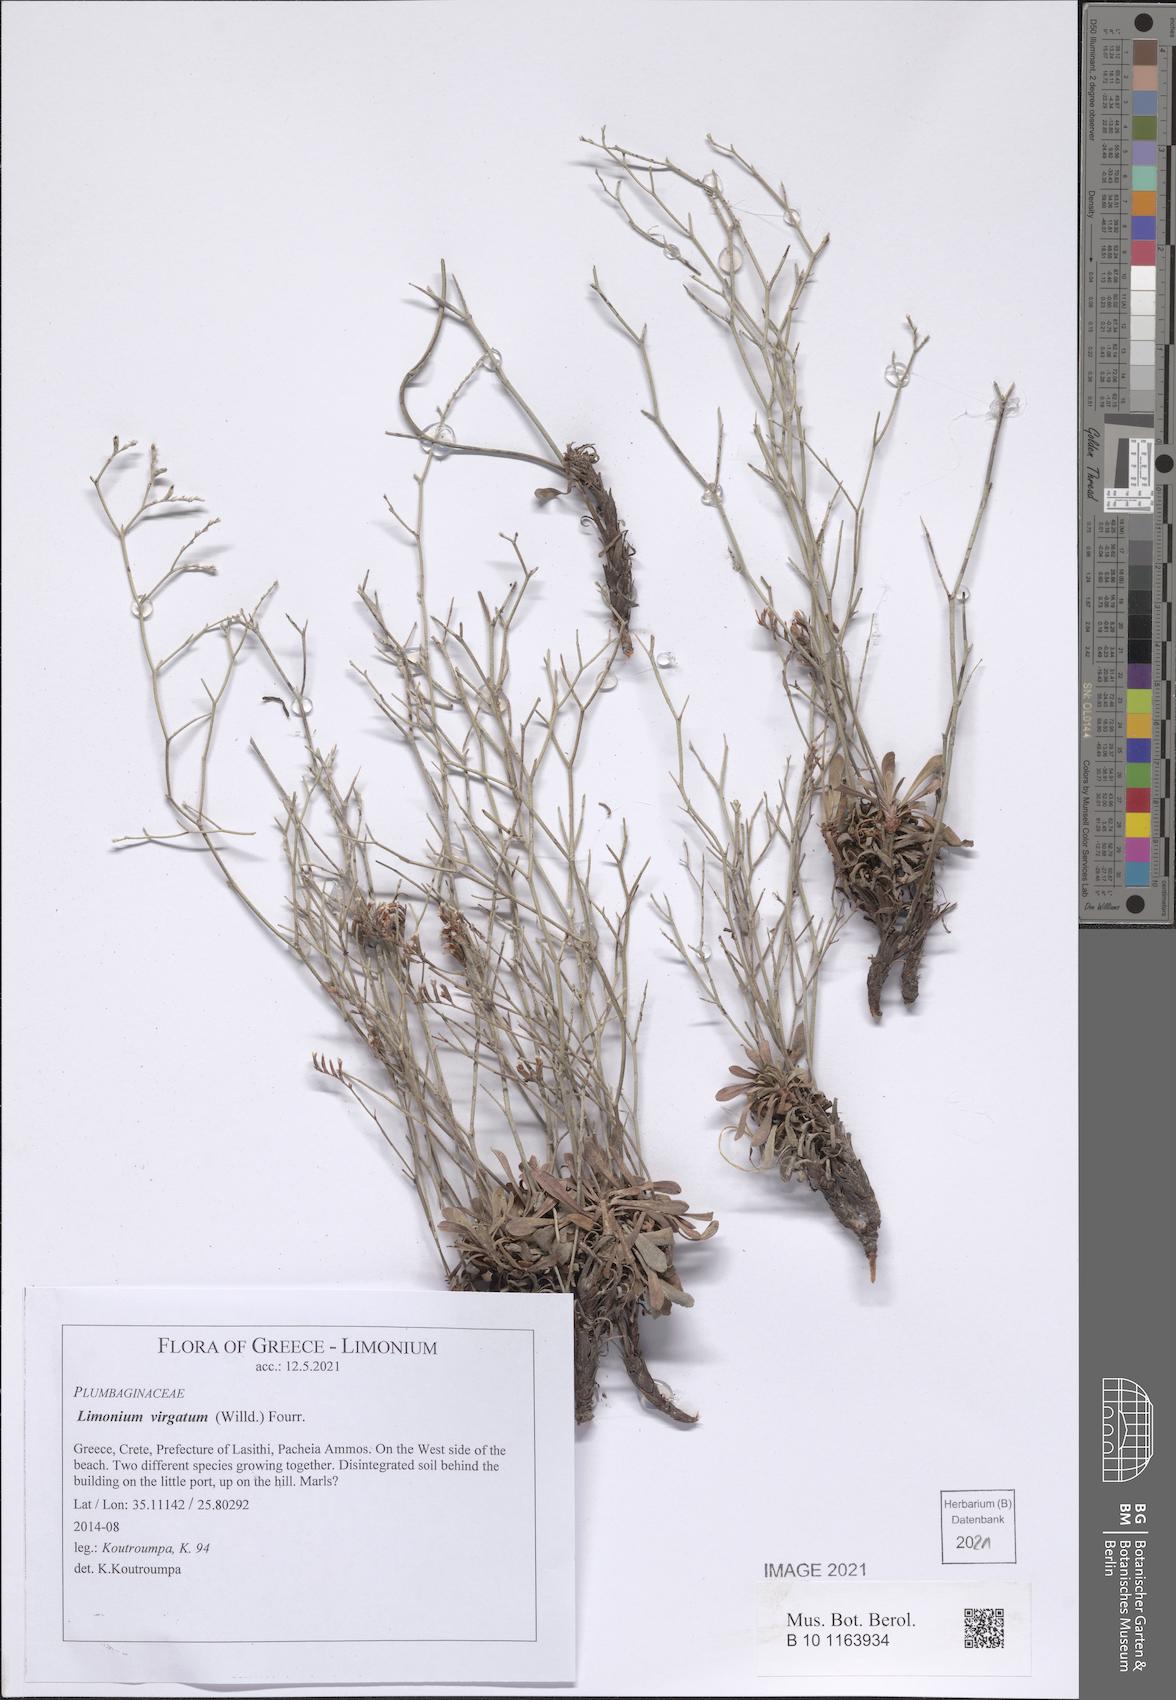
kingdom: Plantae
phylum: Tracheophyta
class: Magnoliopsida
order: Caryophyllales
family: Plumbaginaceae
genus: Limonium
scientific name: Limonium virgatum
